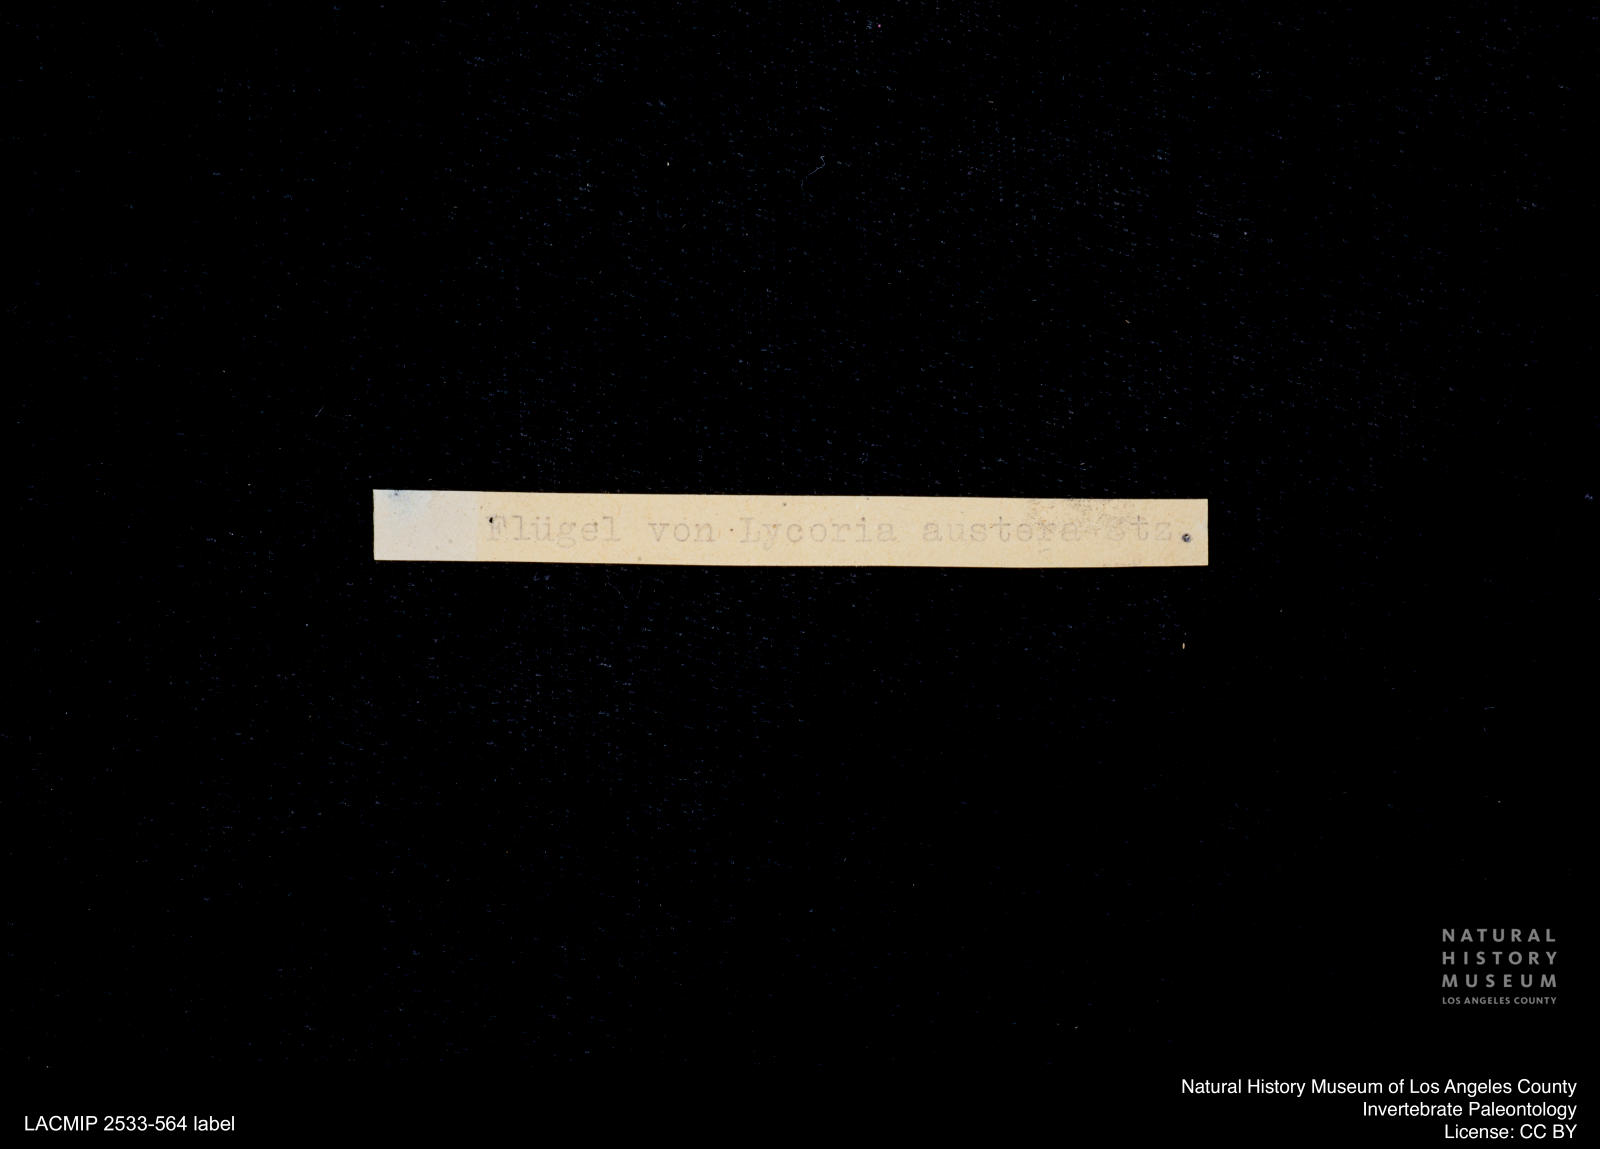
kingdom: Animalia
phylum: Arthropoda
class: Insecta
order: Diptera
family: Sciaridae
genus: Sciara
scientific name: Sciara austera
